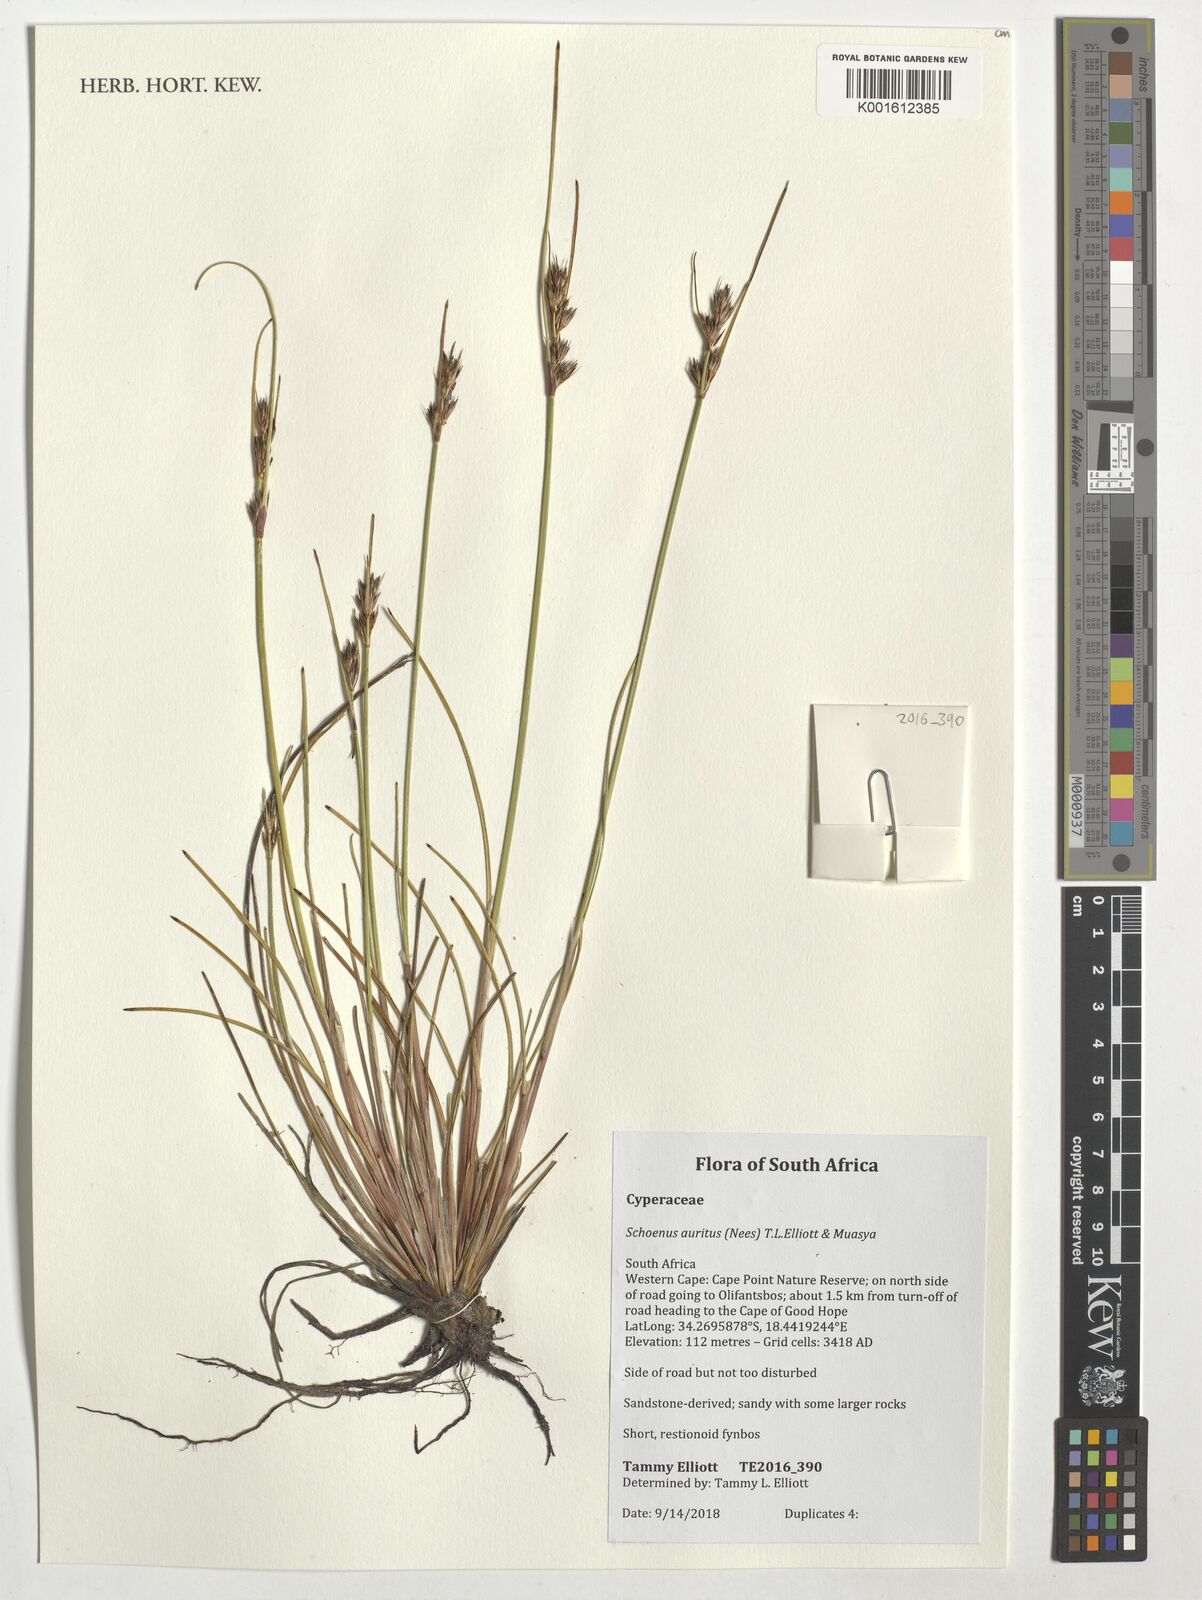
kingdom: Plantae
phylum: Tracheophyta
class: Liliopsida
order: Poales
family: Cyperaceae
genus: Schoenus
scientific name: Schoenus auritus
